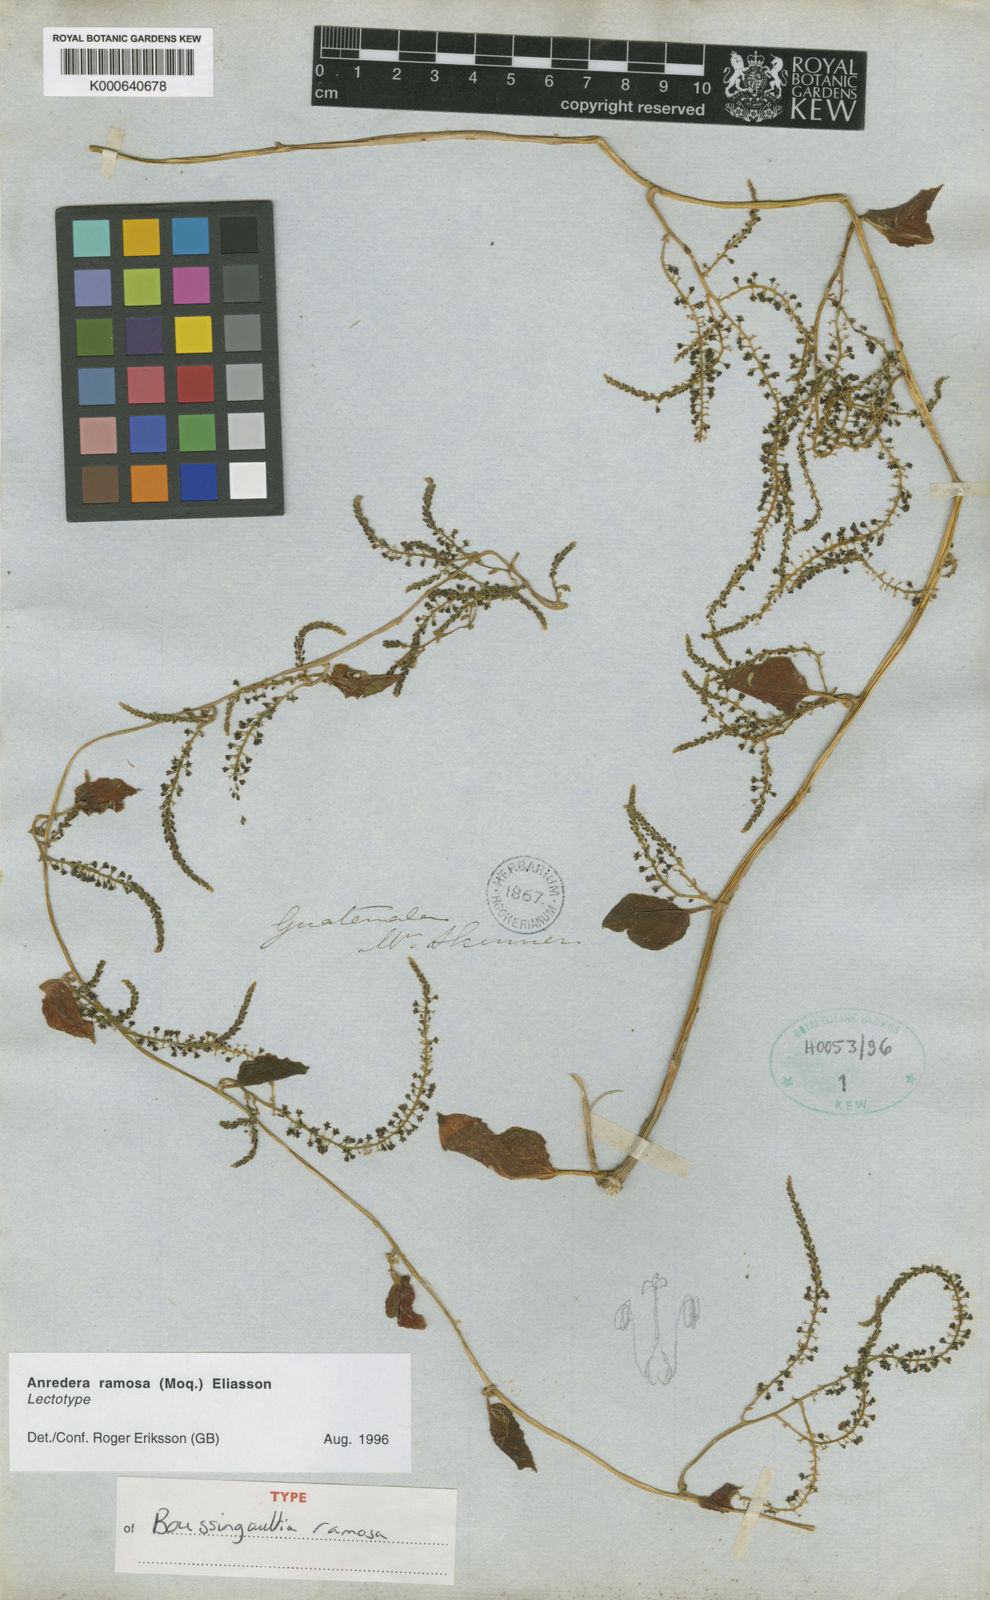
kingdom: Plantae
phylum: Tracheophyta
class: Magnoliopsida
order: Caryophyllales
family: Basellaceae
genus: Anredera
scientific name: Anredera ramosa
